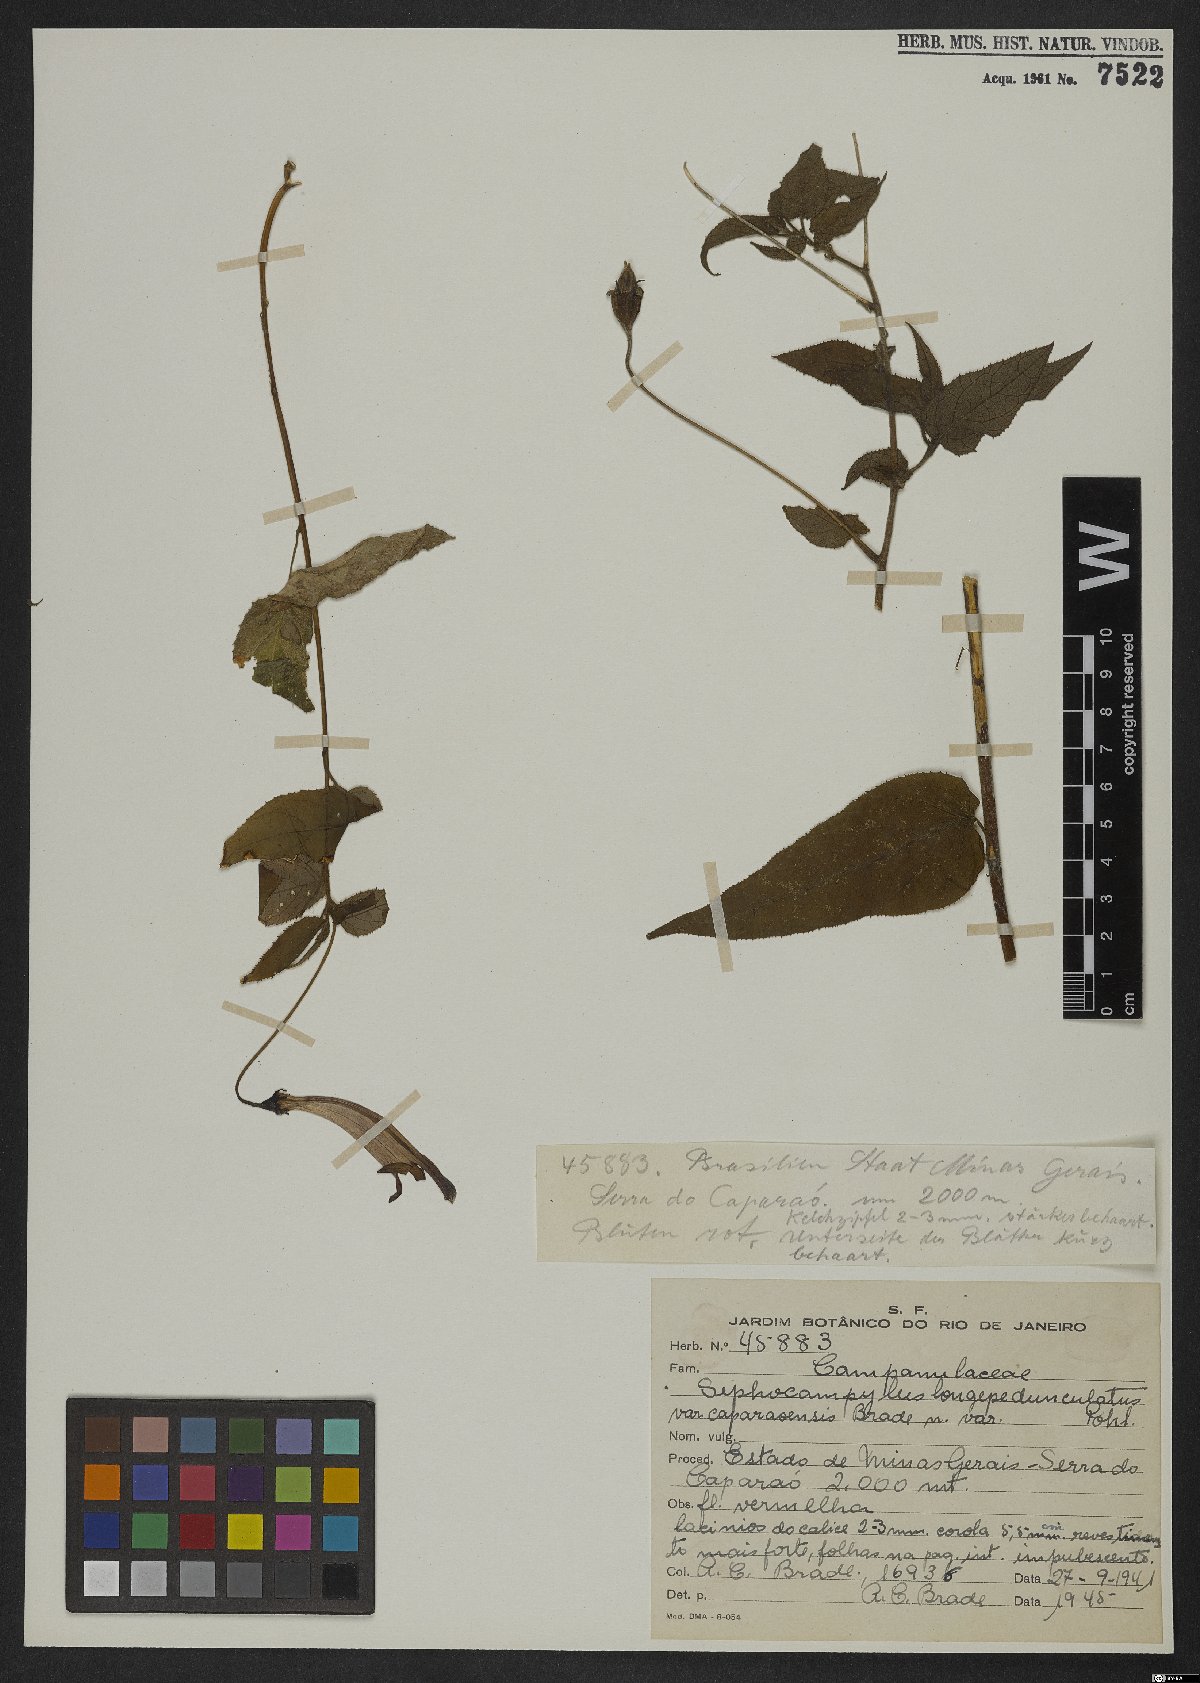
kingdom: Plantae
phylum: Tracheophyta
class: Magnoliopsida
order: Asterales
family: Campanulaceae
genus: Siphocampylus
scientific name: Siphocampylus longipedunculatus
